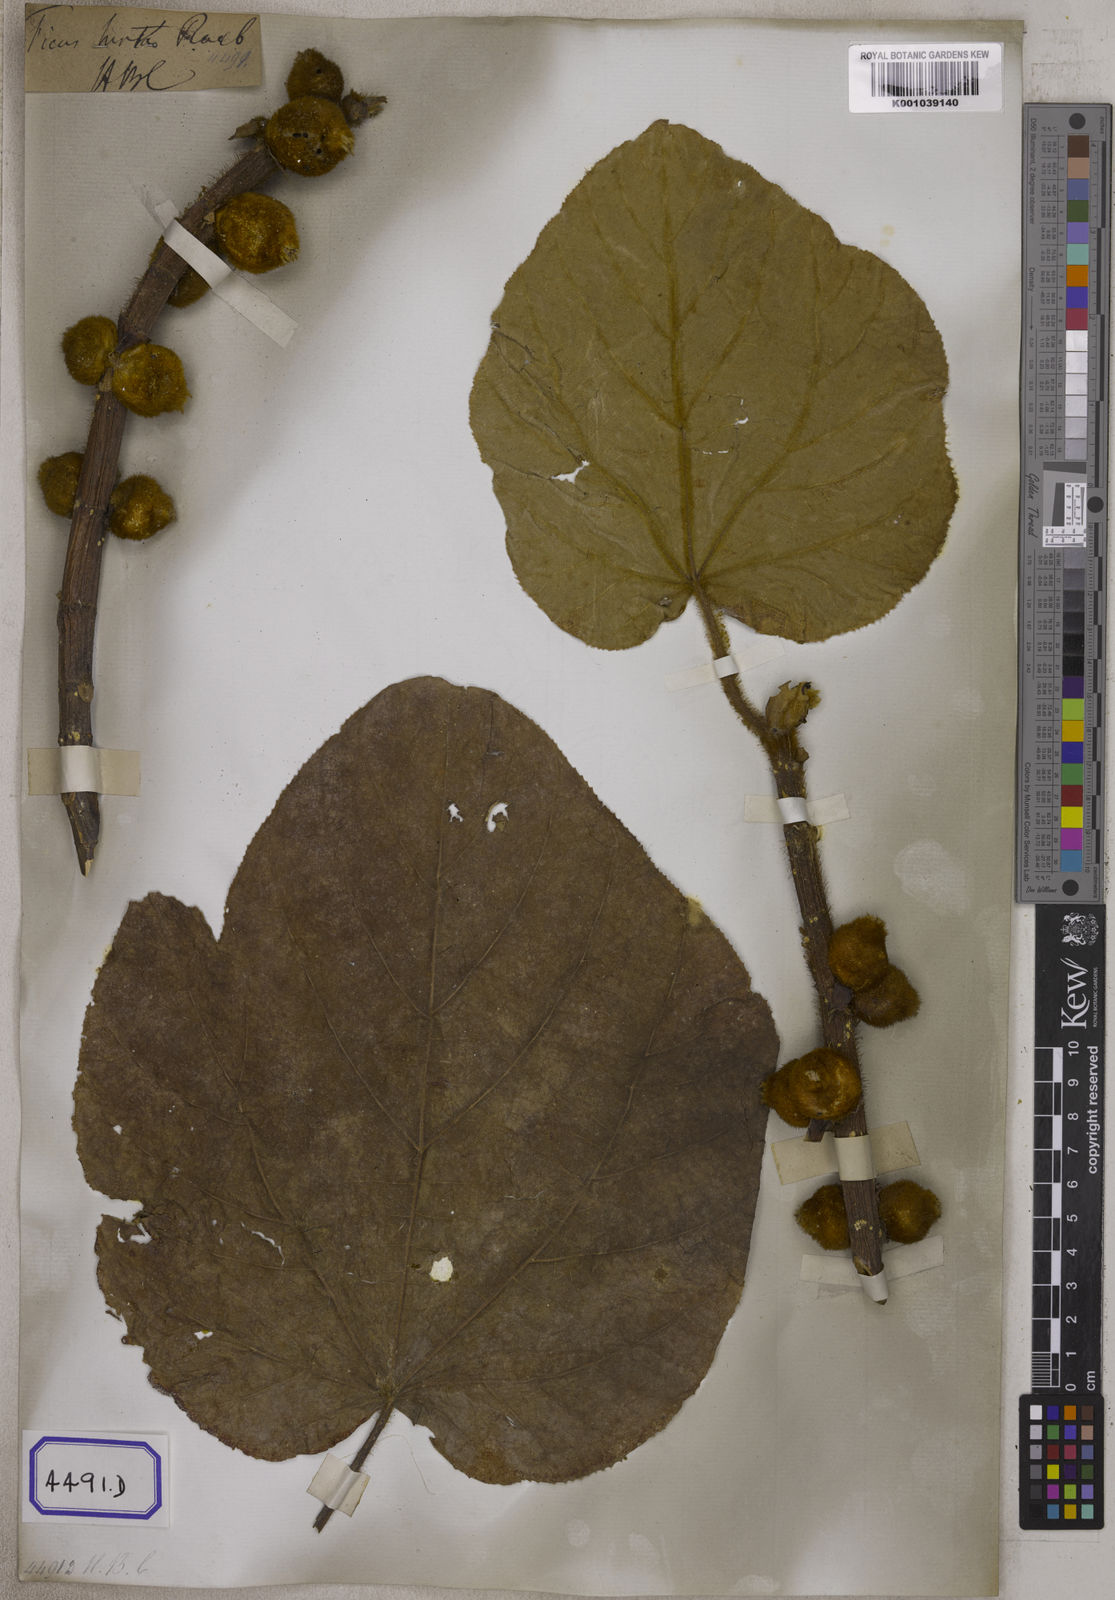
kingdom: Plantae
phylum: Tracheophyta
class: Magnoliopsida
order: Rosales
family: Moraceae
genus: Ficus
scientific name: Ficus
